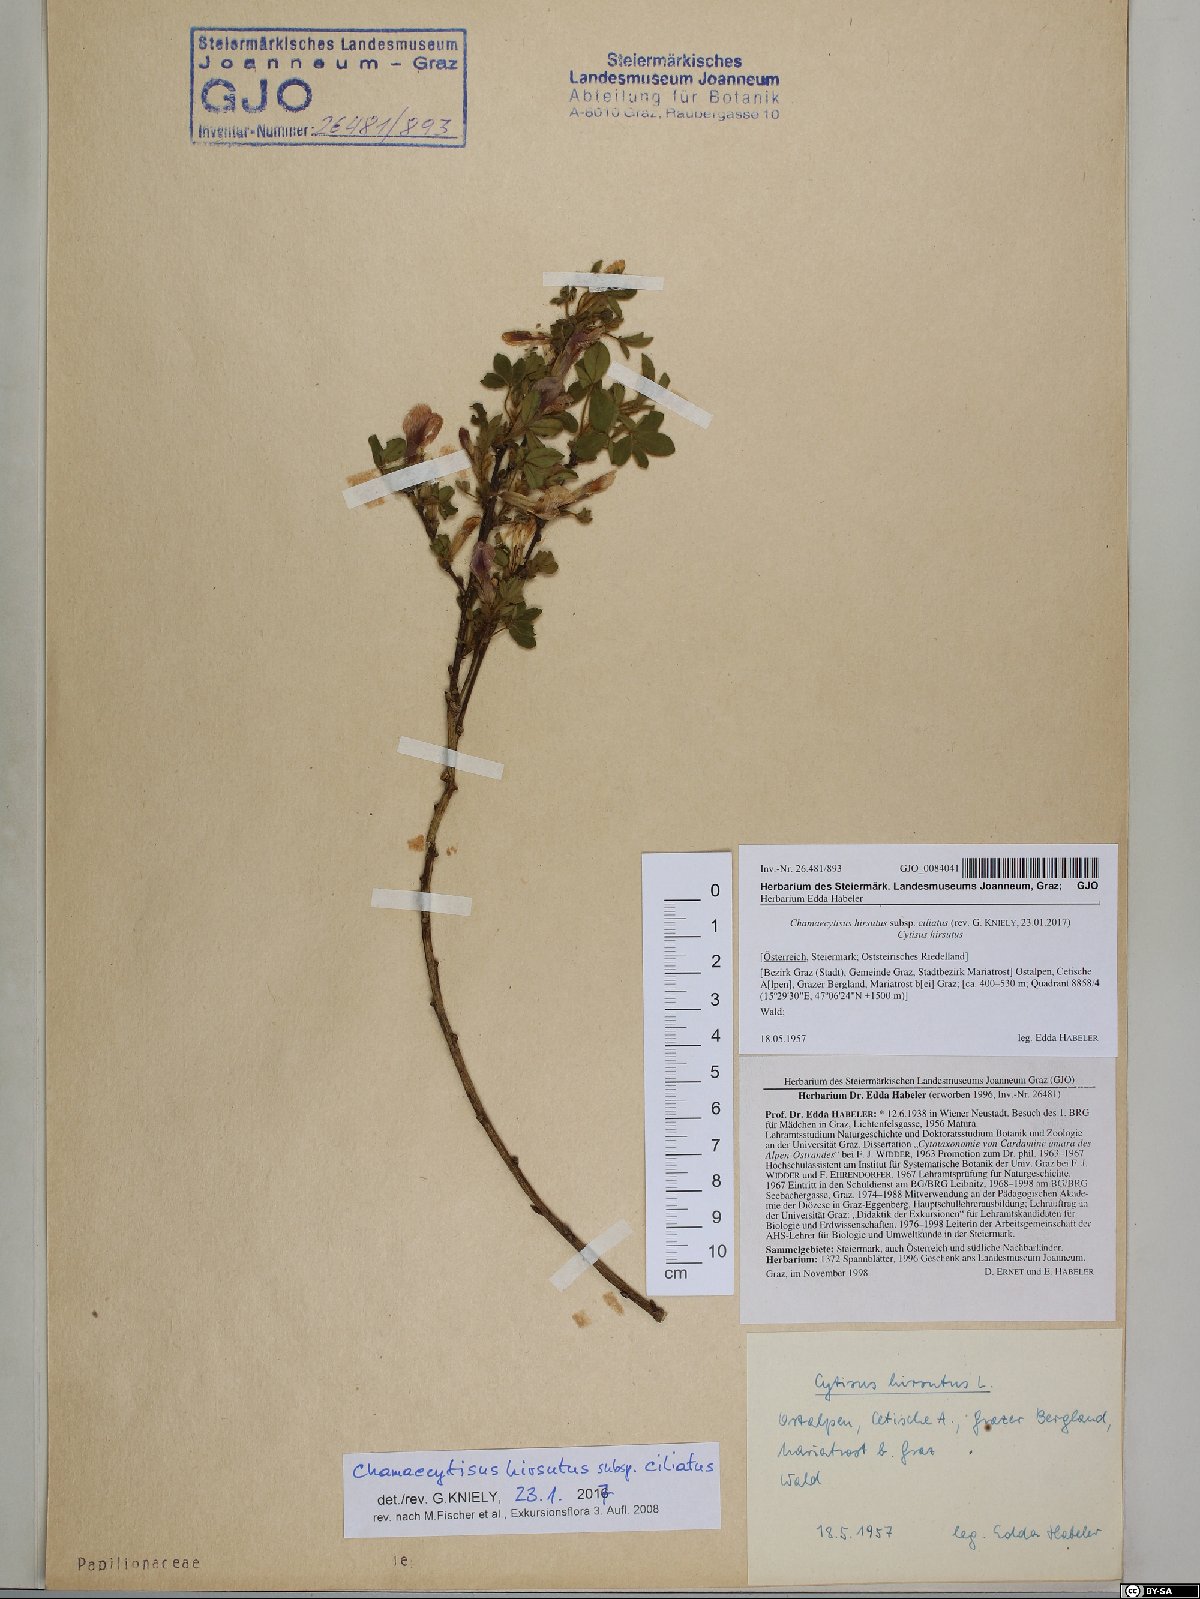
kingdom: Plantae
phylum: Tracheophyta
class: Magnoliopsida
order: Fabales
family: Fabaceae
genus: Chamaecytisus
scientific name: Chamaecytisus hirsutus
